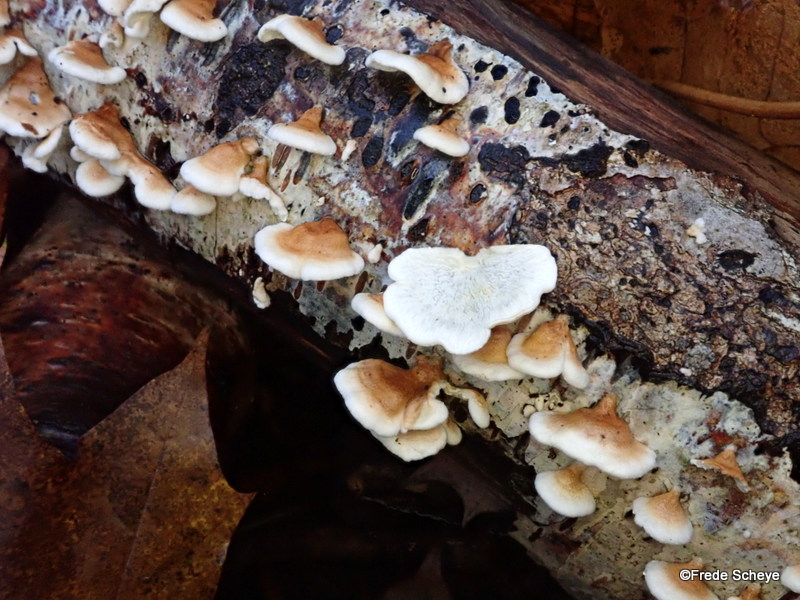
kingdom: Fungi
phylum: Basidiomycota
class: Agaricomycetes
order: Amylocorticiales
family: Amylocorticiaceae
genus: Plicaturopsis
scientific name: Plicaturopsis crispa
